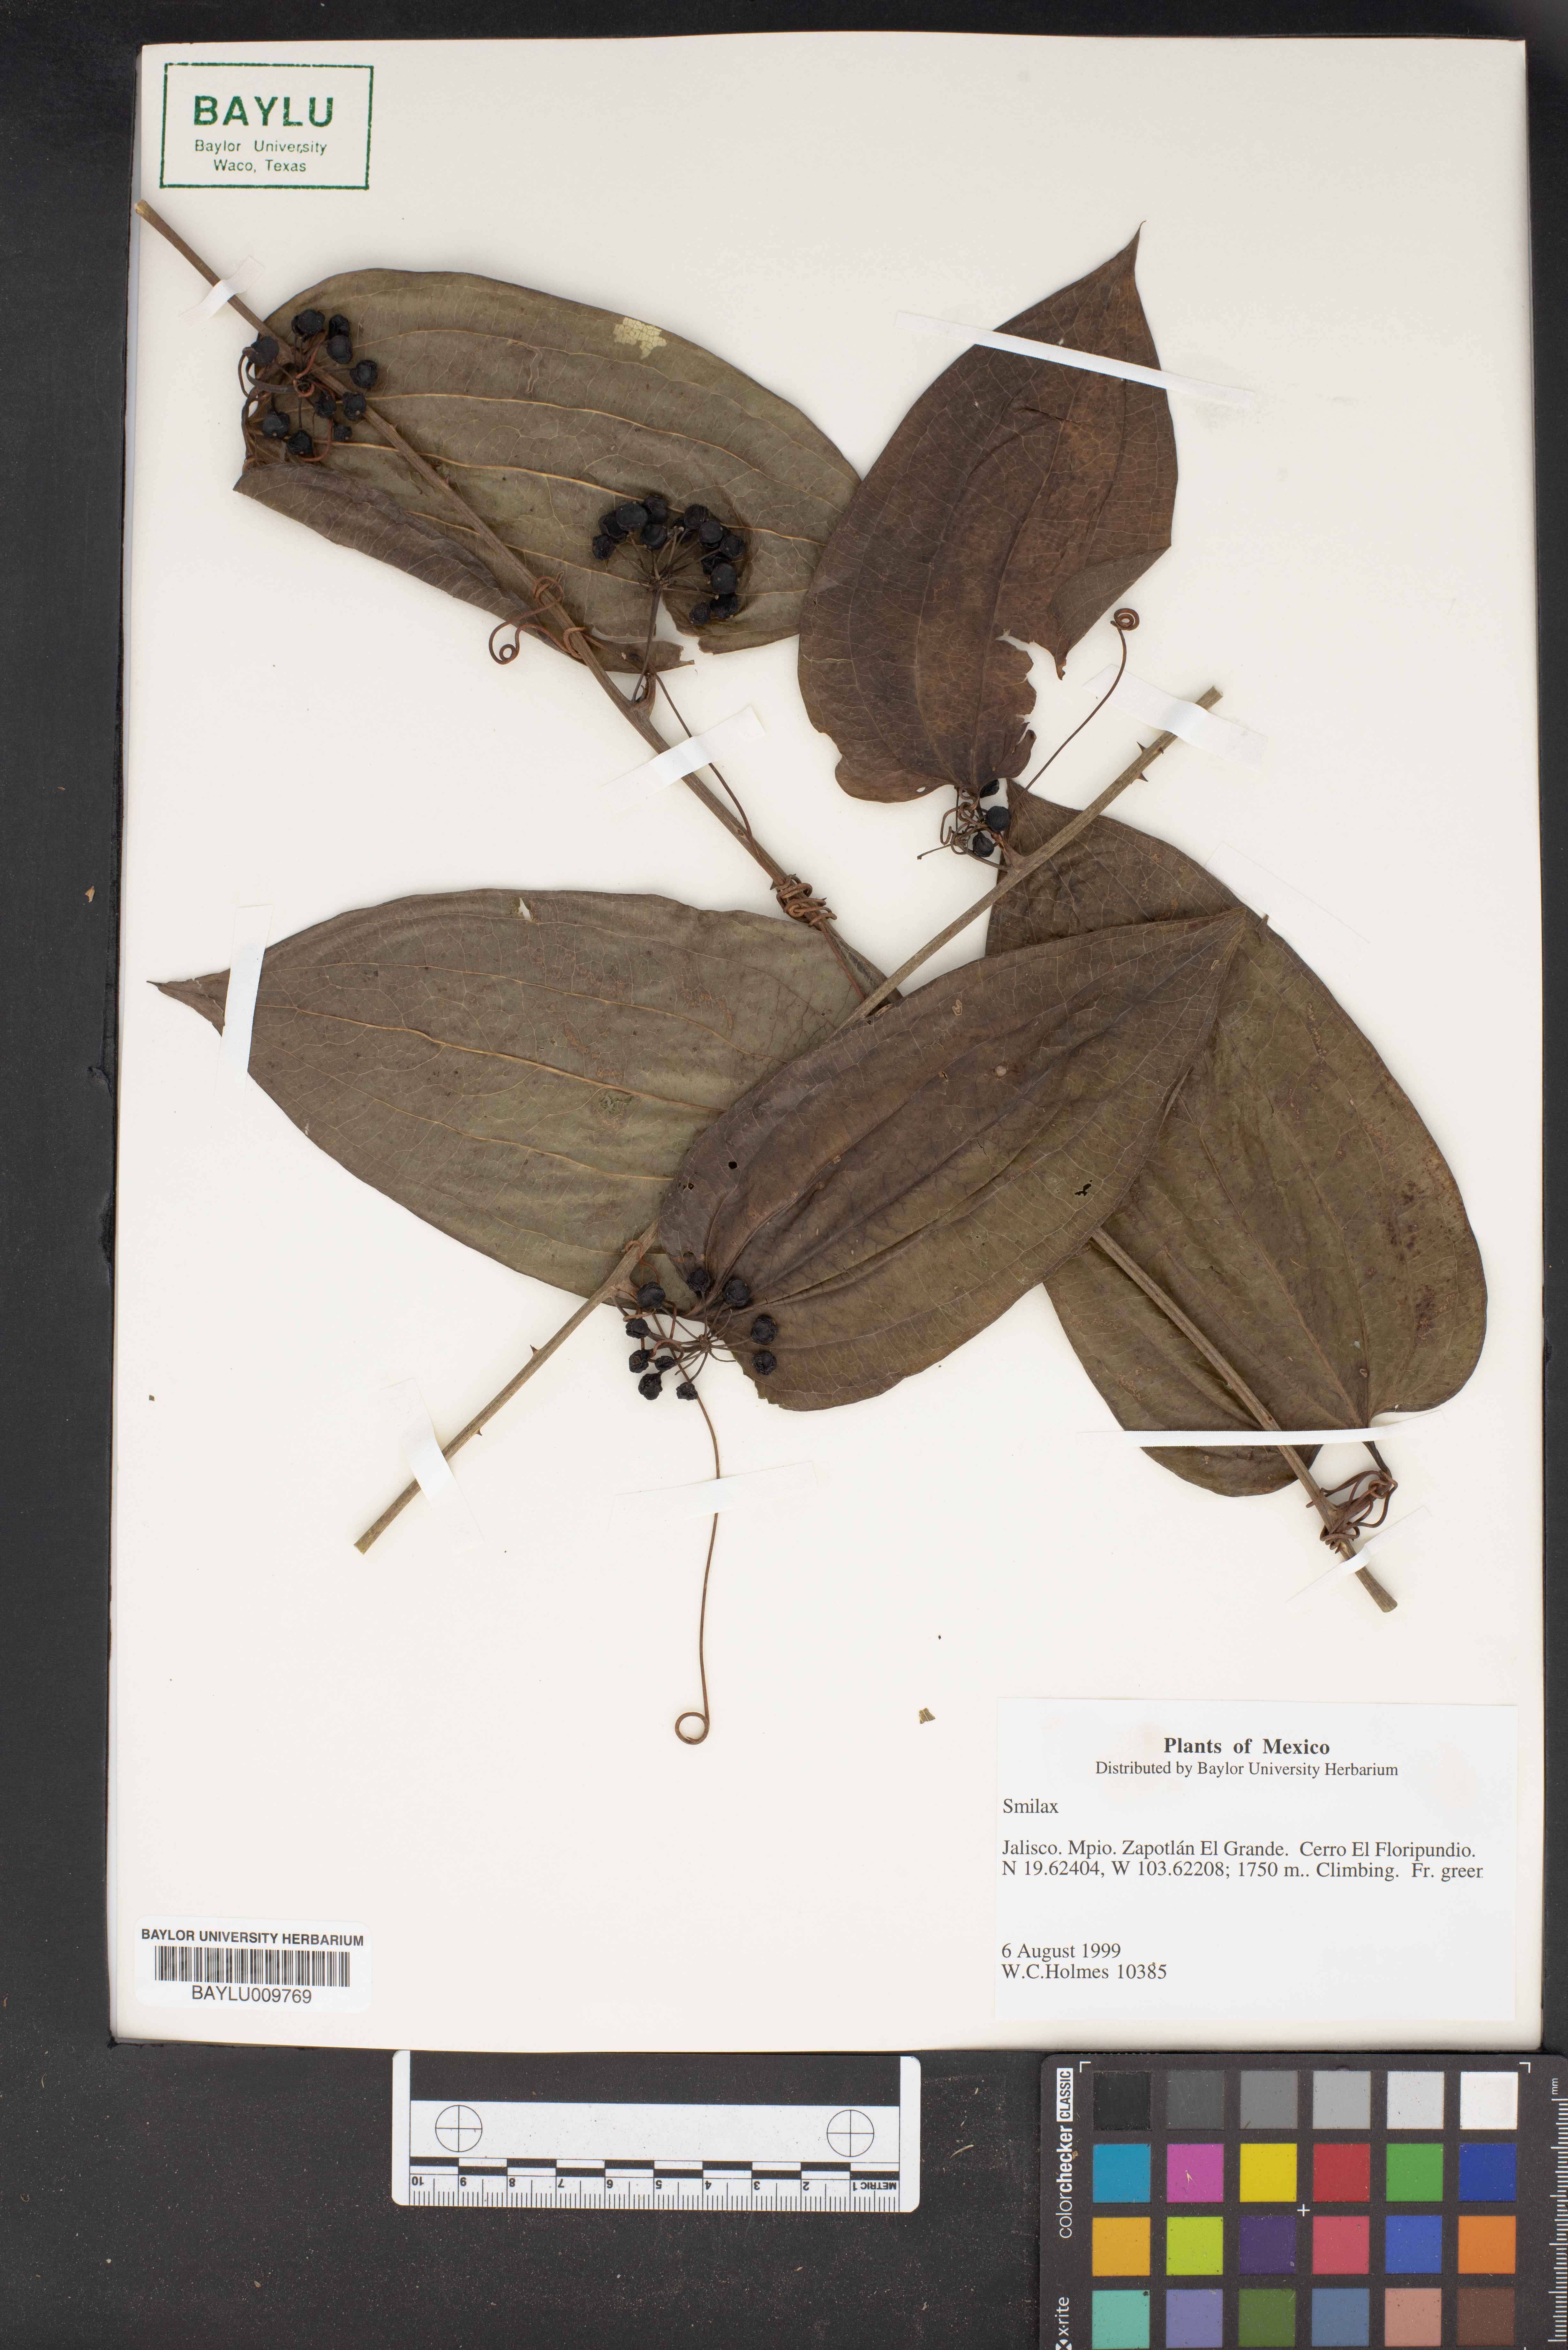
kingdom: Plantae
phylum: Tracheophyta
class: Liliopsida
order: Liliales
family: Smilacaceae
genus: Smilax
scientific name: Smilax
